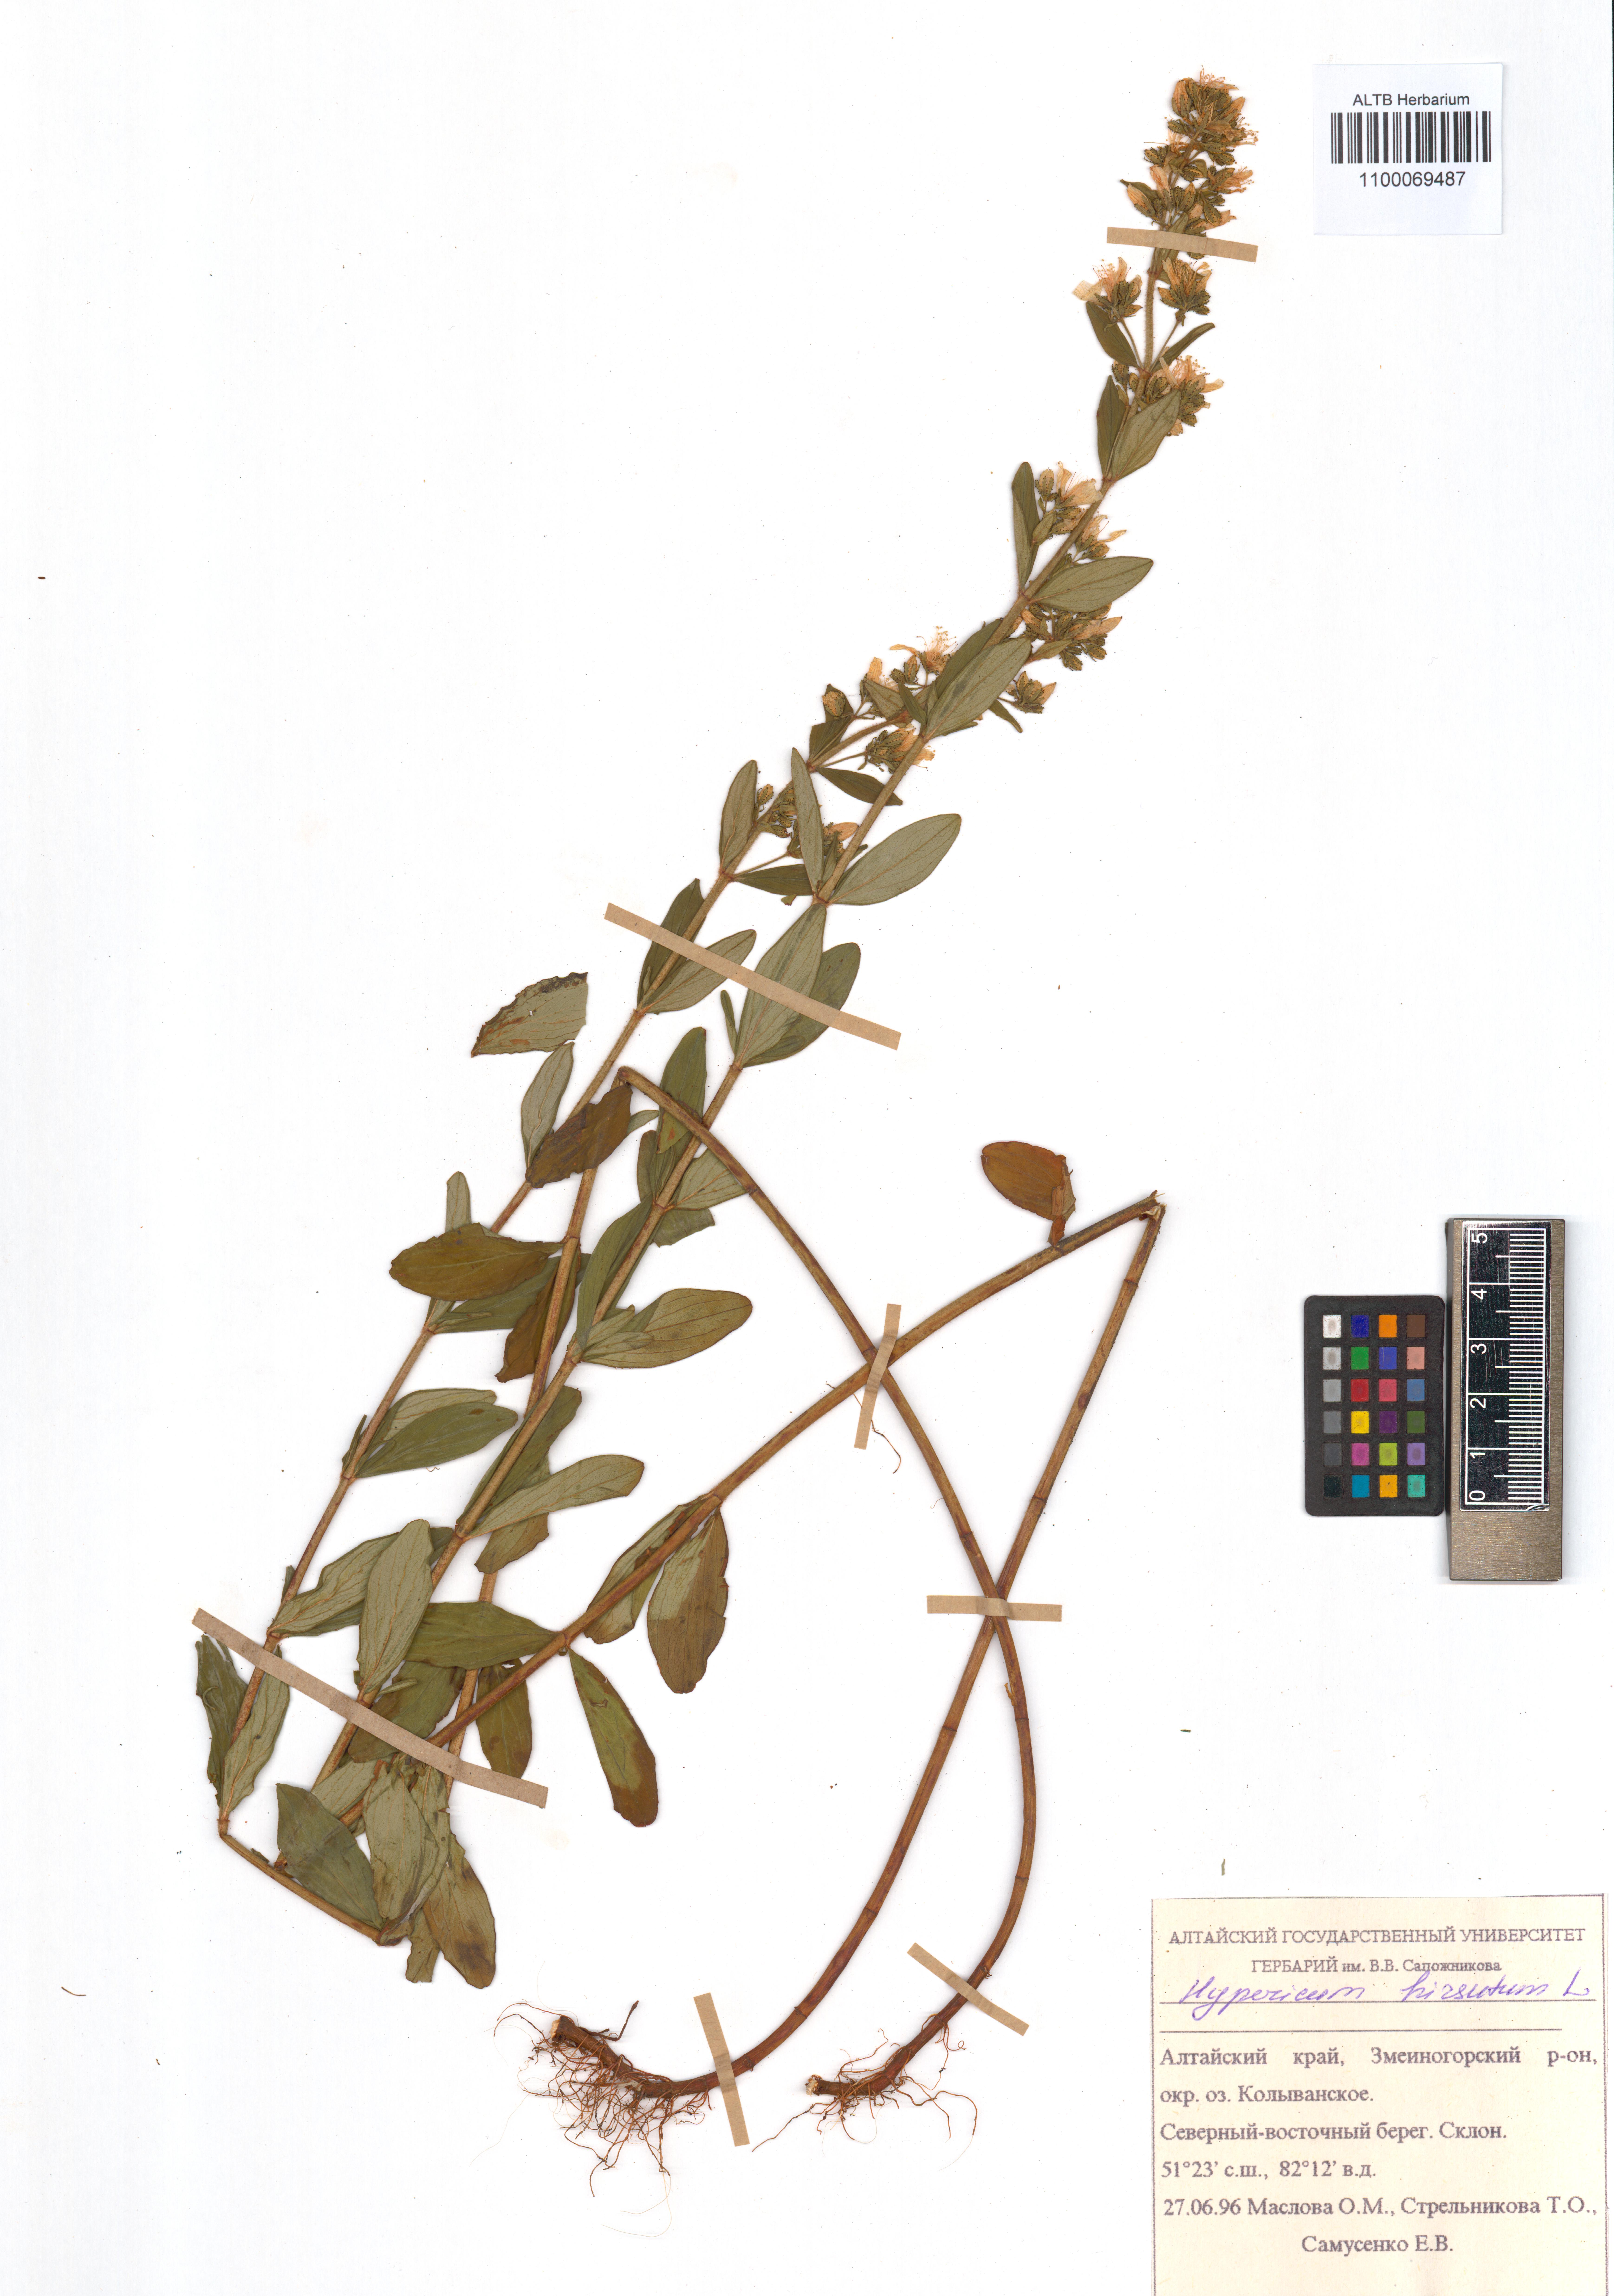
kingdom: Plantae
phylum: Tracheophyta
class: Magnoliopsida
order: Malpighiales
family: Hypericaceae
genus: Hypericum
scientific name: Hypericum hirsutum
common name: Hairy st. john's-wort
